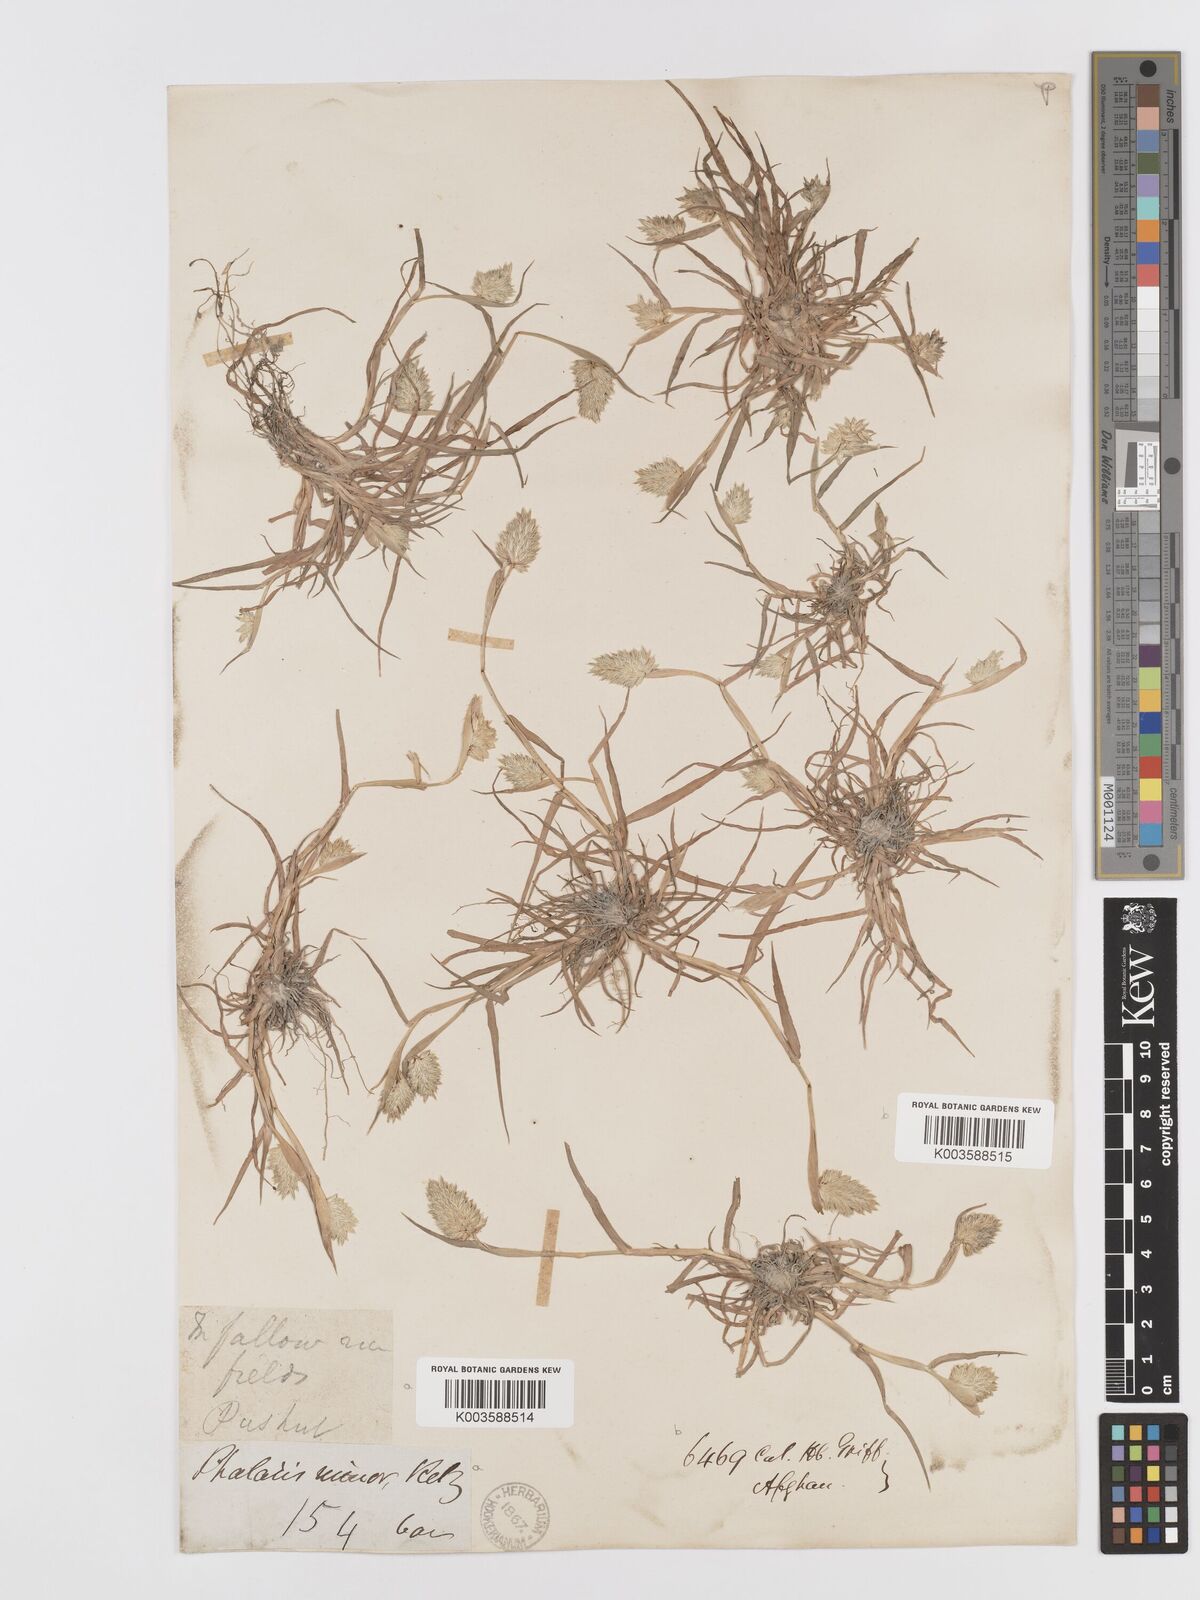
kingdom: Plantae
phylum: Tracheophyta
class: Liliopsida
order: Poales
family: Poaceae
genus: Phalaris
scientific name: Phalaris minor
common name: Littleseed canarygrass
